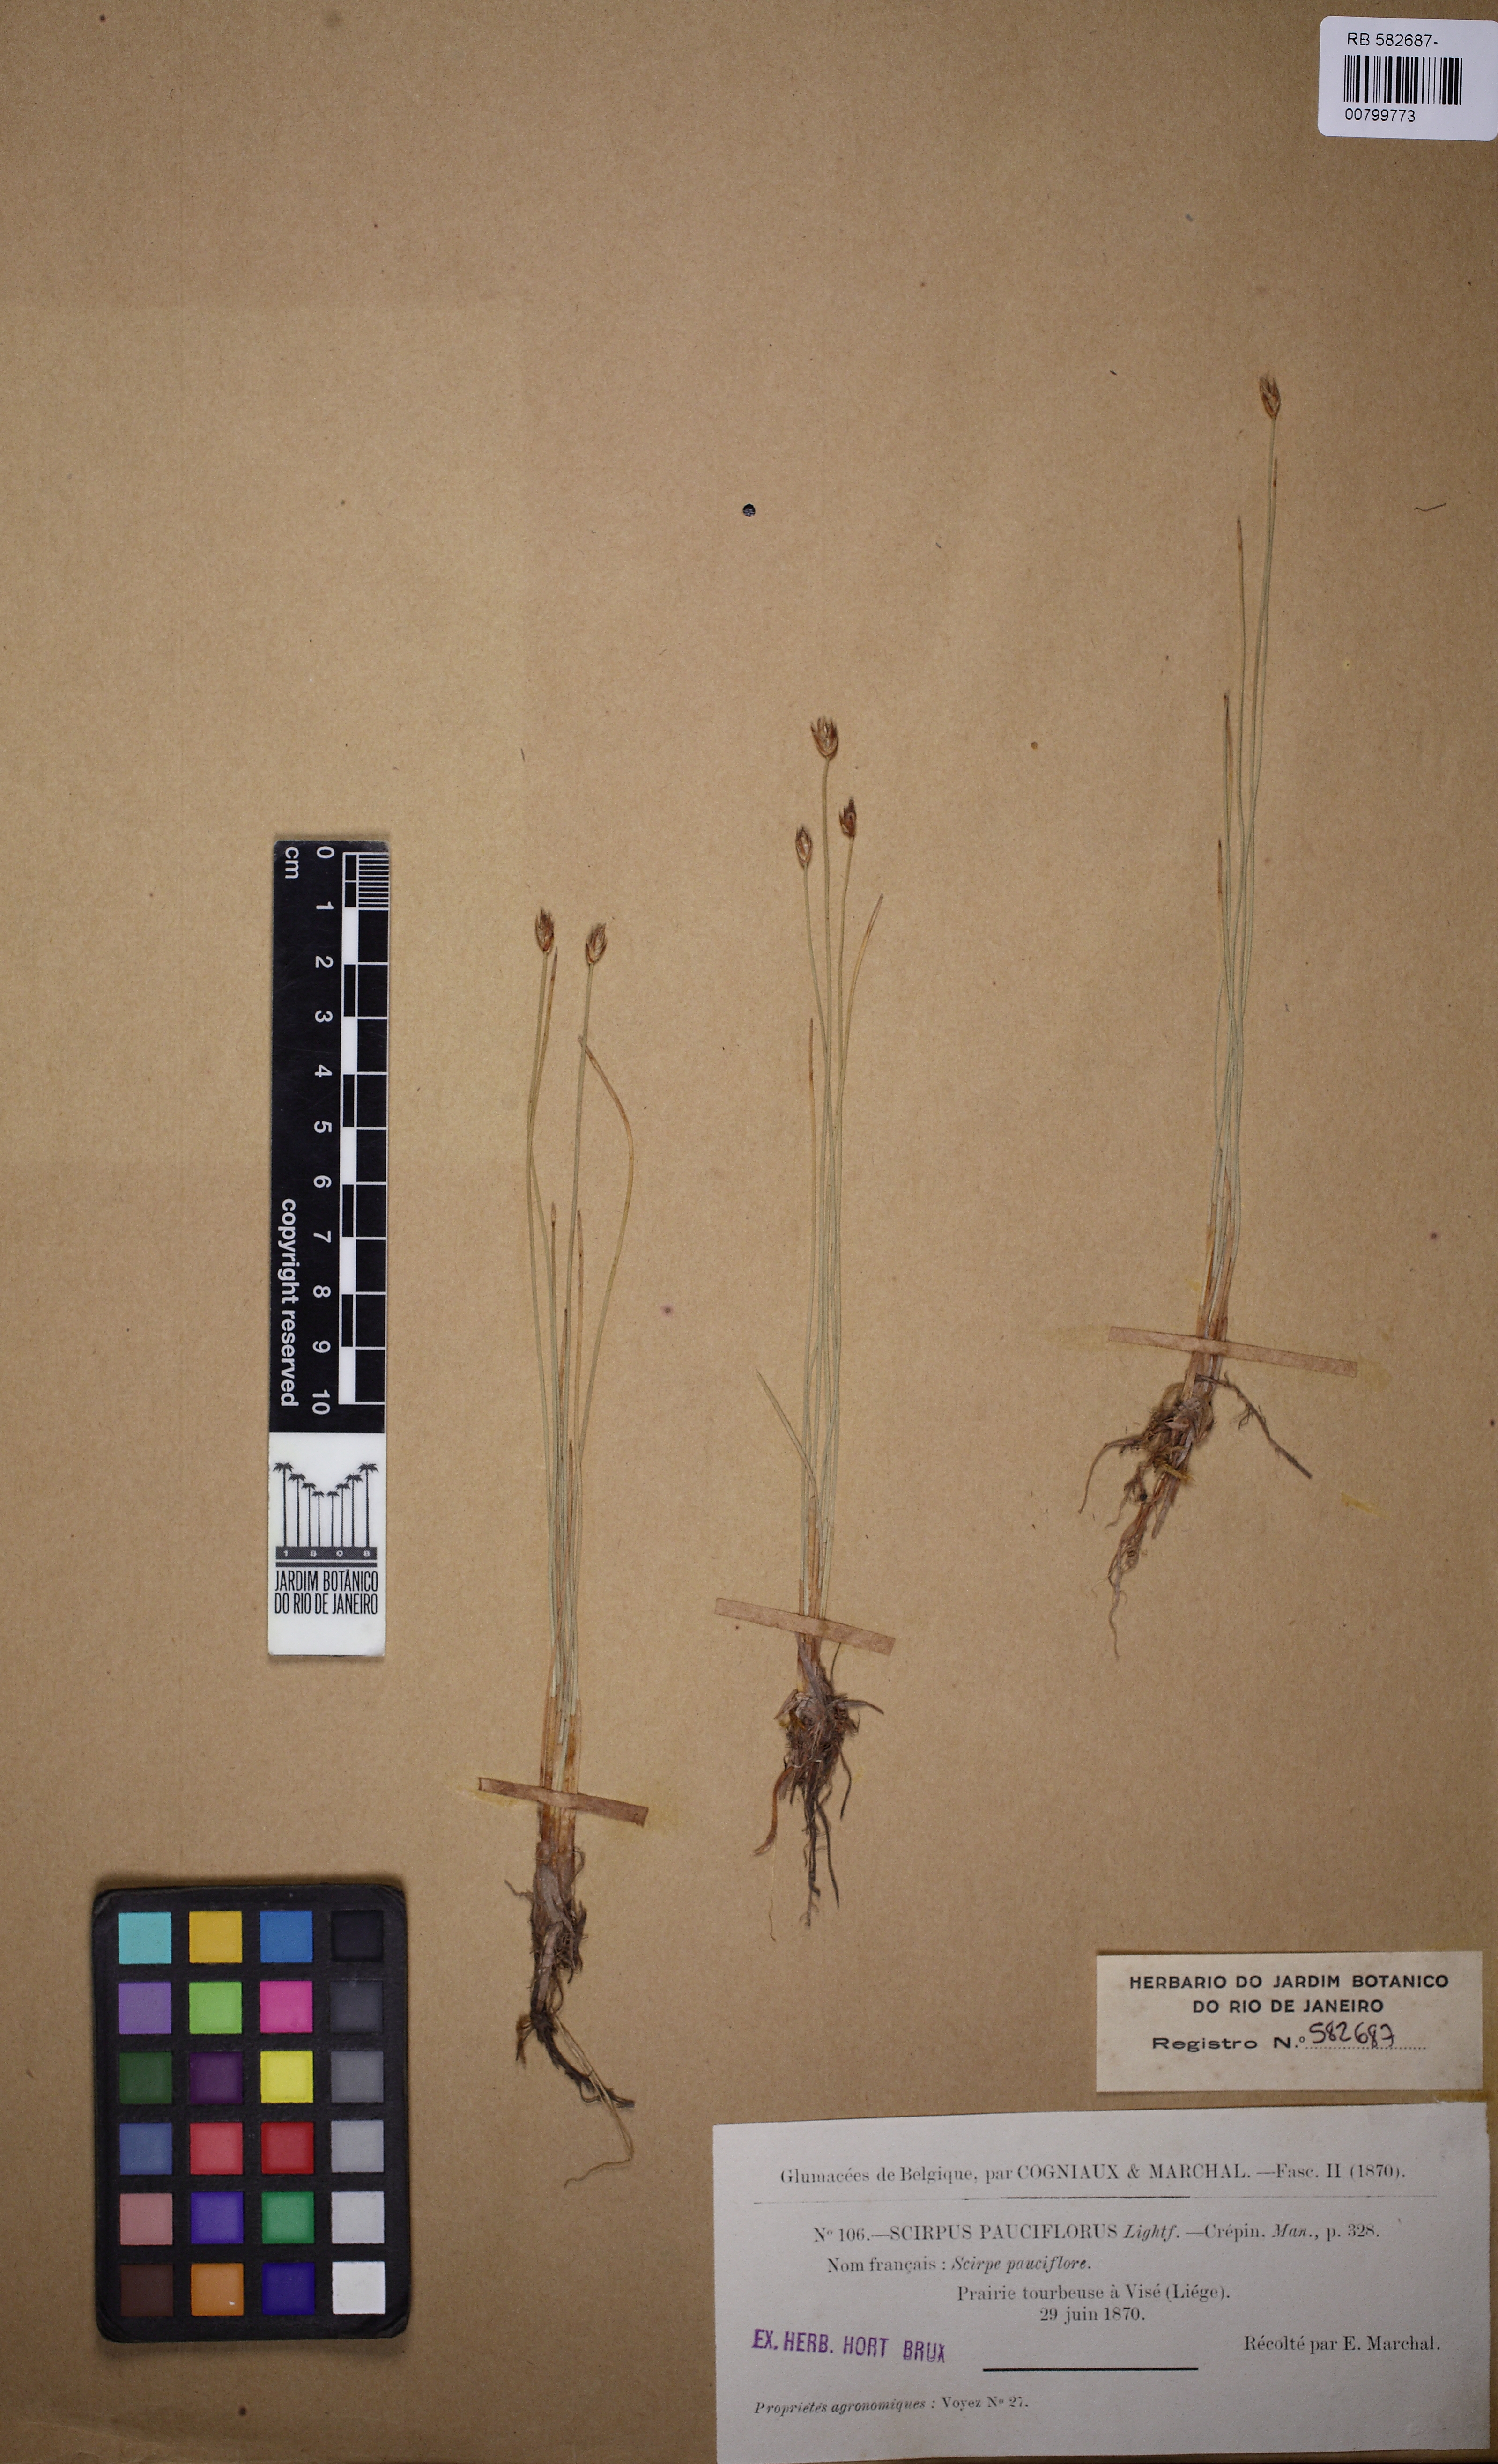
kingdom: Plantae
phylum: Tracheophyta
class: Liliopsida
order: Poales
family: Cyperaceae
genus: Eleocharis
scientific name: Eleocharis quinqueflora
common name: Few-flowered spike-rush
